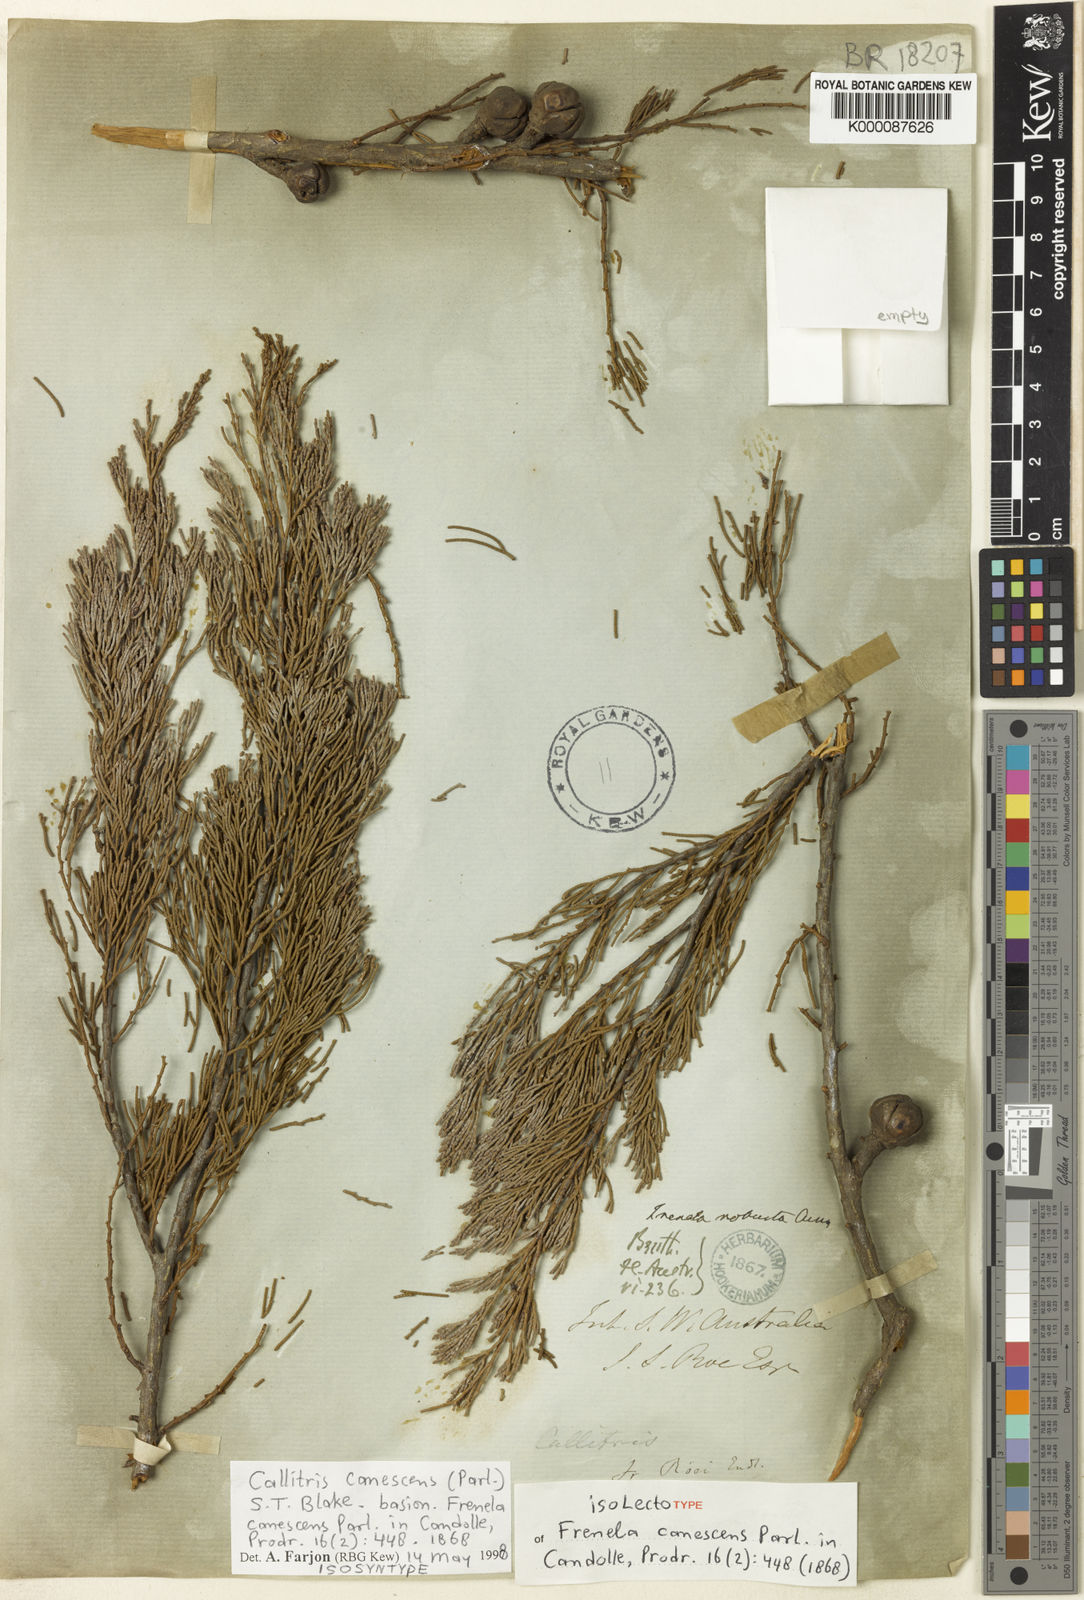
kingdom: Plantae
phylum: Tracheophyta
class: Pinopsida
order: Pinales
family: Cupressaceae
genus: Callitris
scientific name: Callitris canescens
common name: Morrison's cypress-pine
